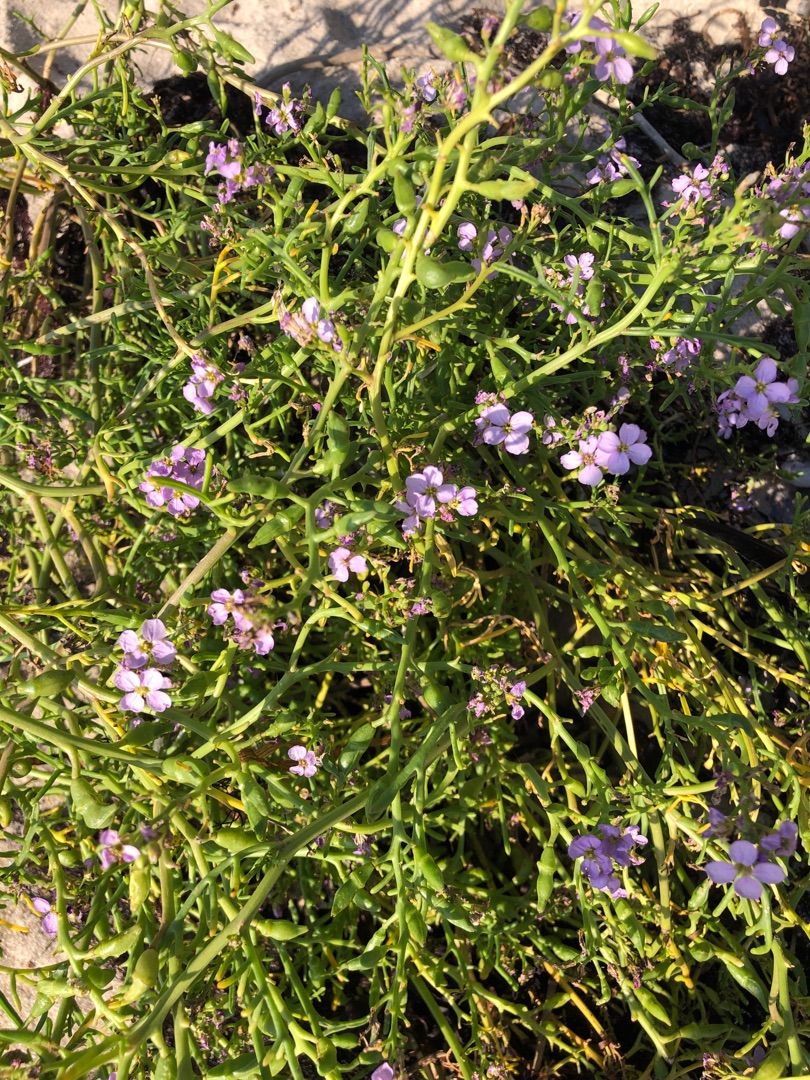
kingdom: Plantae
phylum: Tracheophyta
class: Magnoliopsida
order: Brassicales
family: Brassicaceae
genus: Cakile
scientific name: Cakile maritima
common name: Strandsennep
